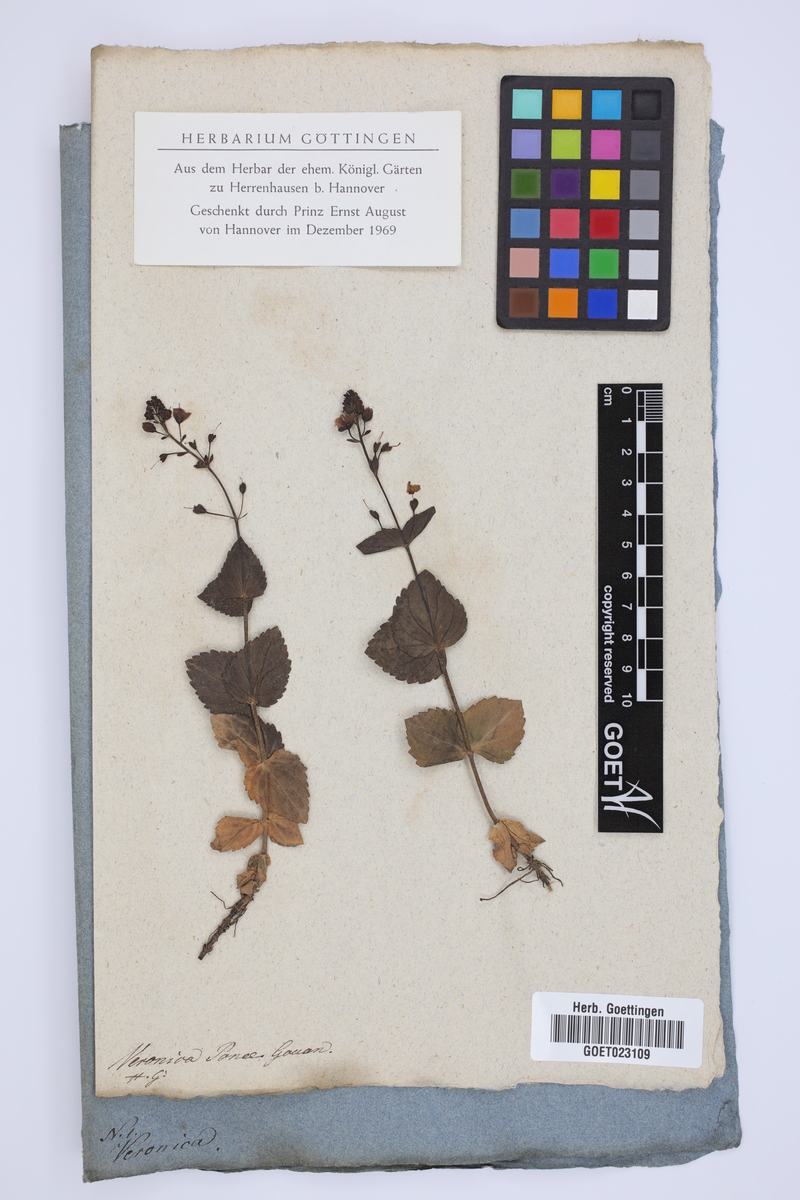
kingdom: Plantae
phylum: Tracheophyta
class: Magnoliopsida
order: Lamiales
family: Plantaginaceae
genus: Veronica
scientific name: Veronica ponae
